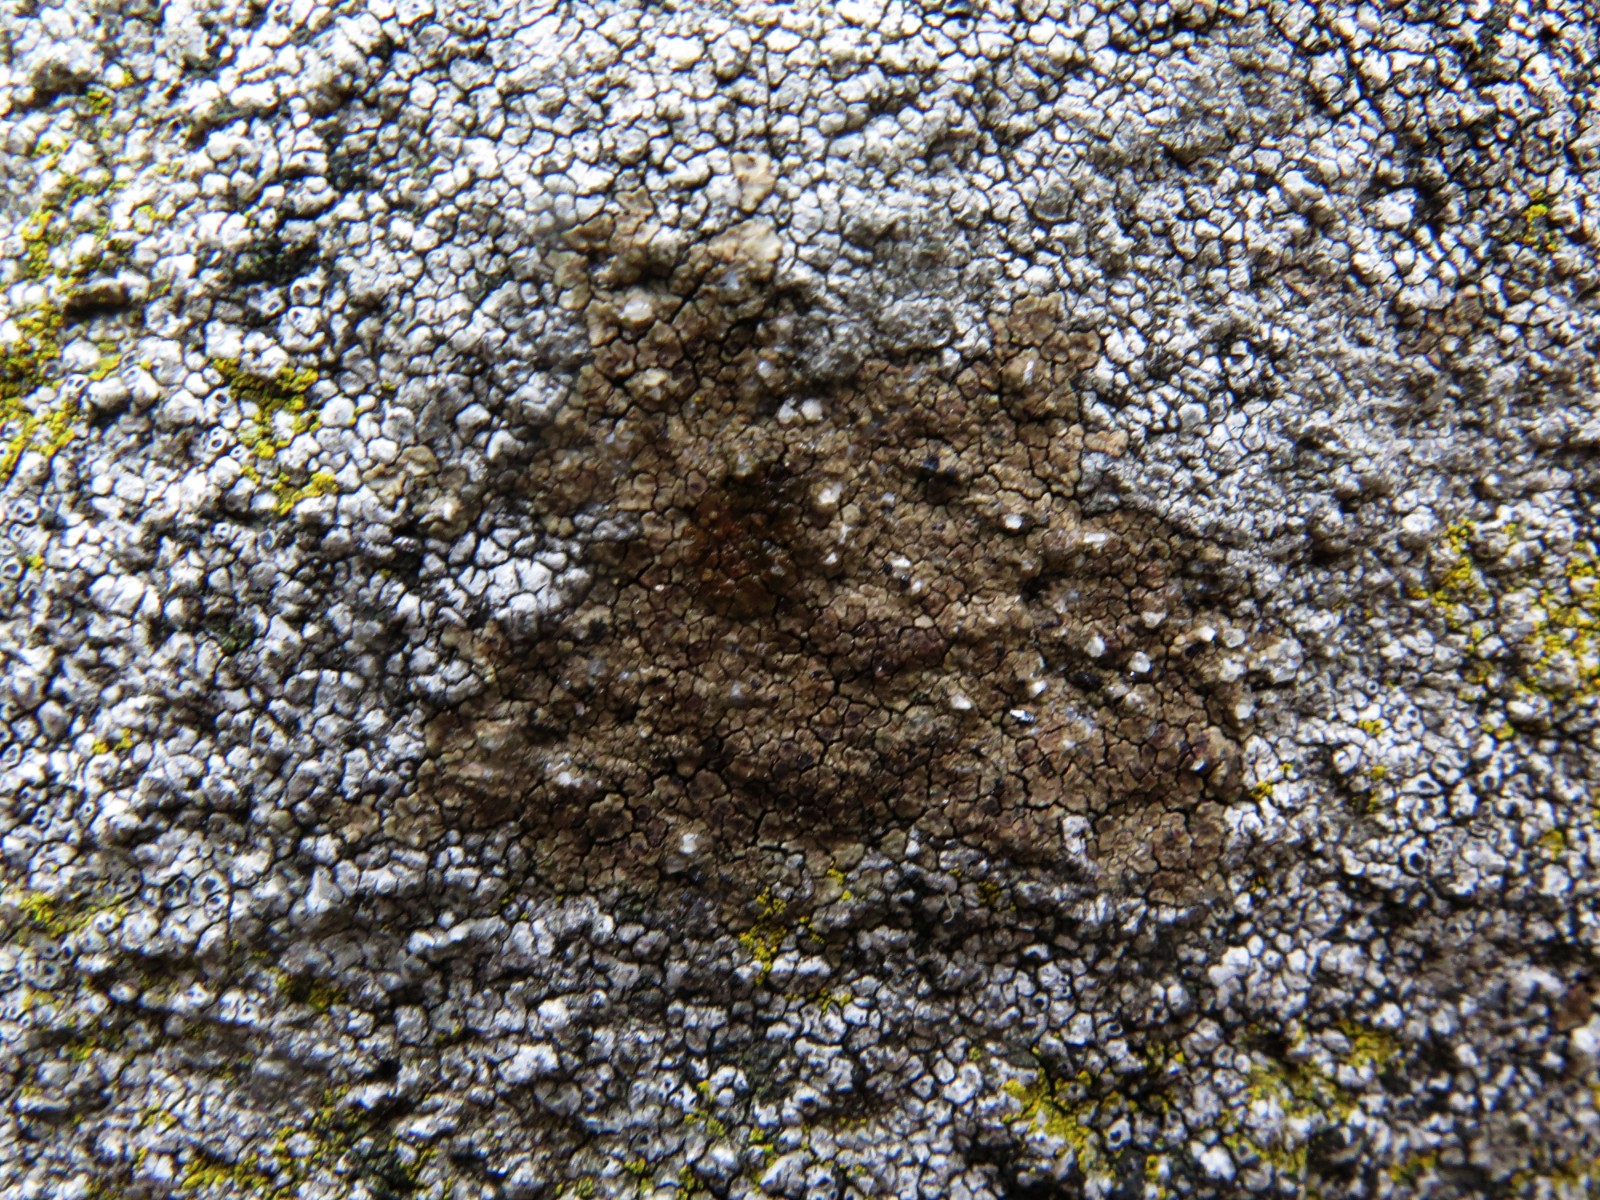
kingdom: Fungi
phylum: Ascomycota
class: Lecanoromycetes
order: Acarosporales
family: Acarosporaceae
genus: Acarospora
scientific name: Acarospora fuscata
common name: brun småsporelav
